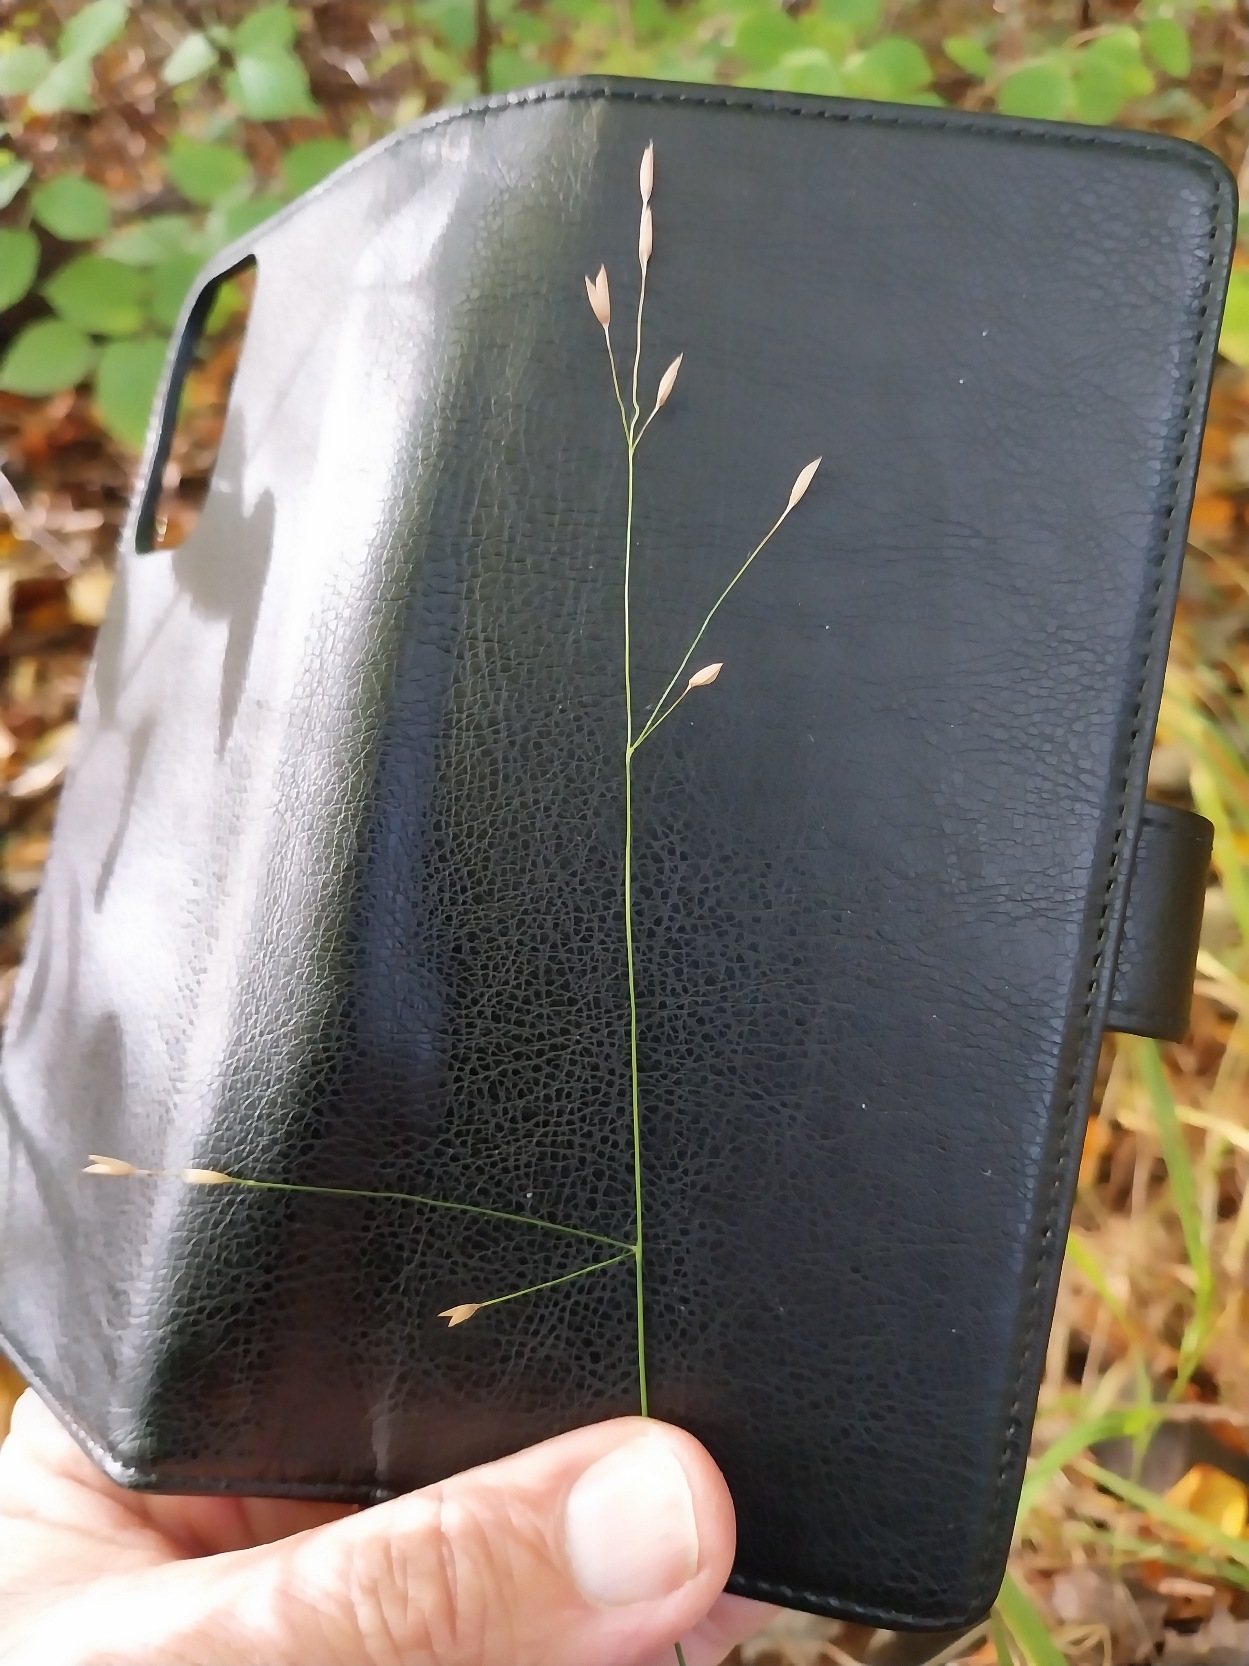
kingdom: Plantae
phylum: Tracheophyta
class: Liliopsida
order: Poales
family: Poaceae
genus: Melica
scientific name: Melica uniflora
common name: Enblomstret flitteraks
